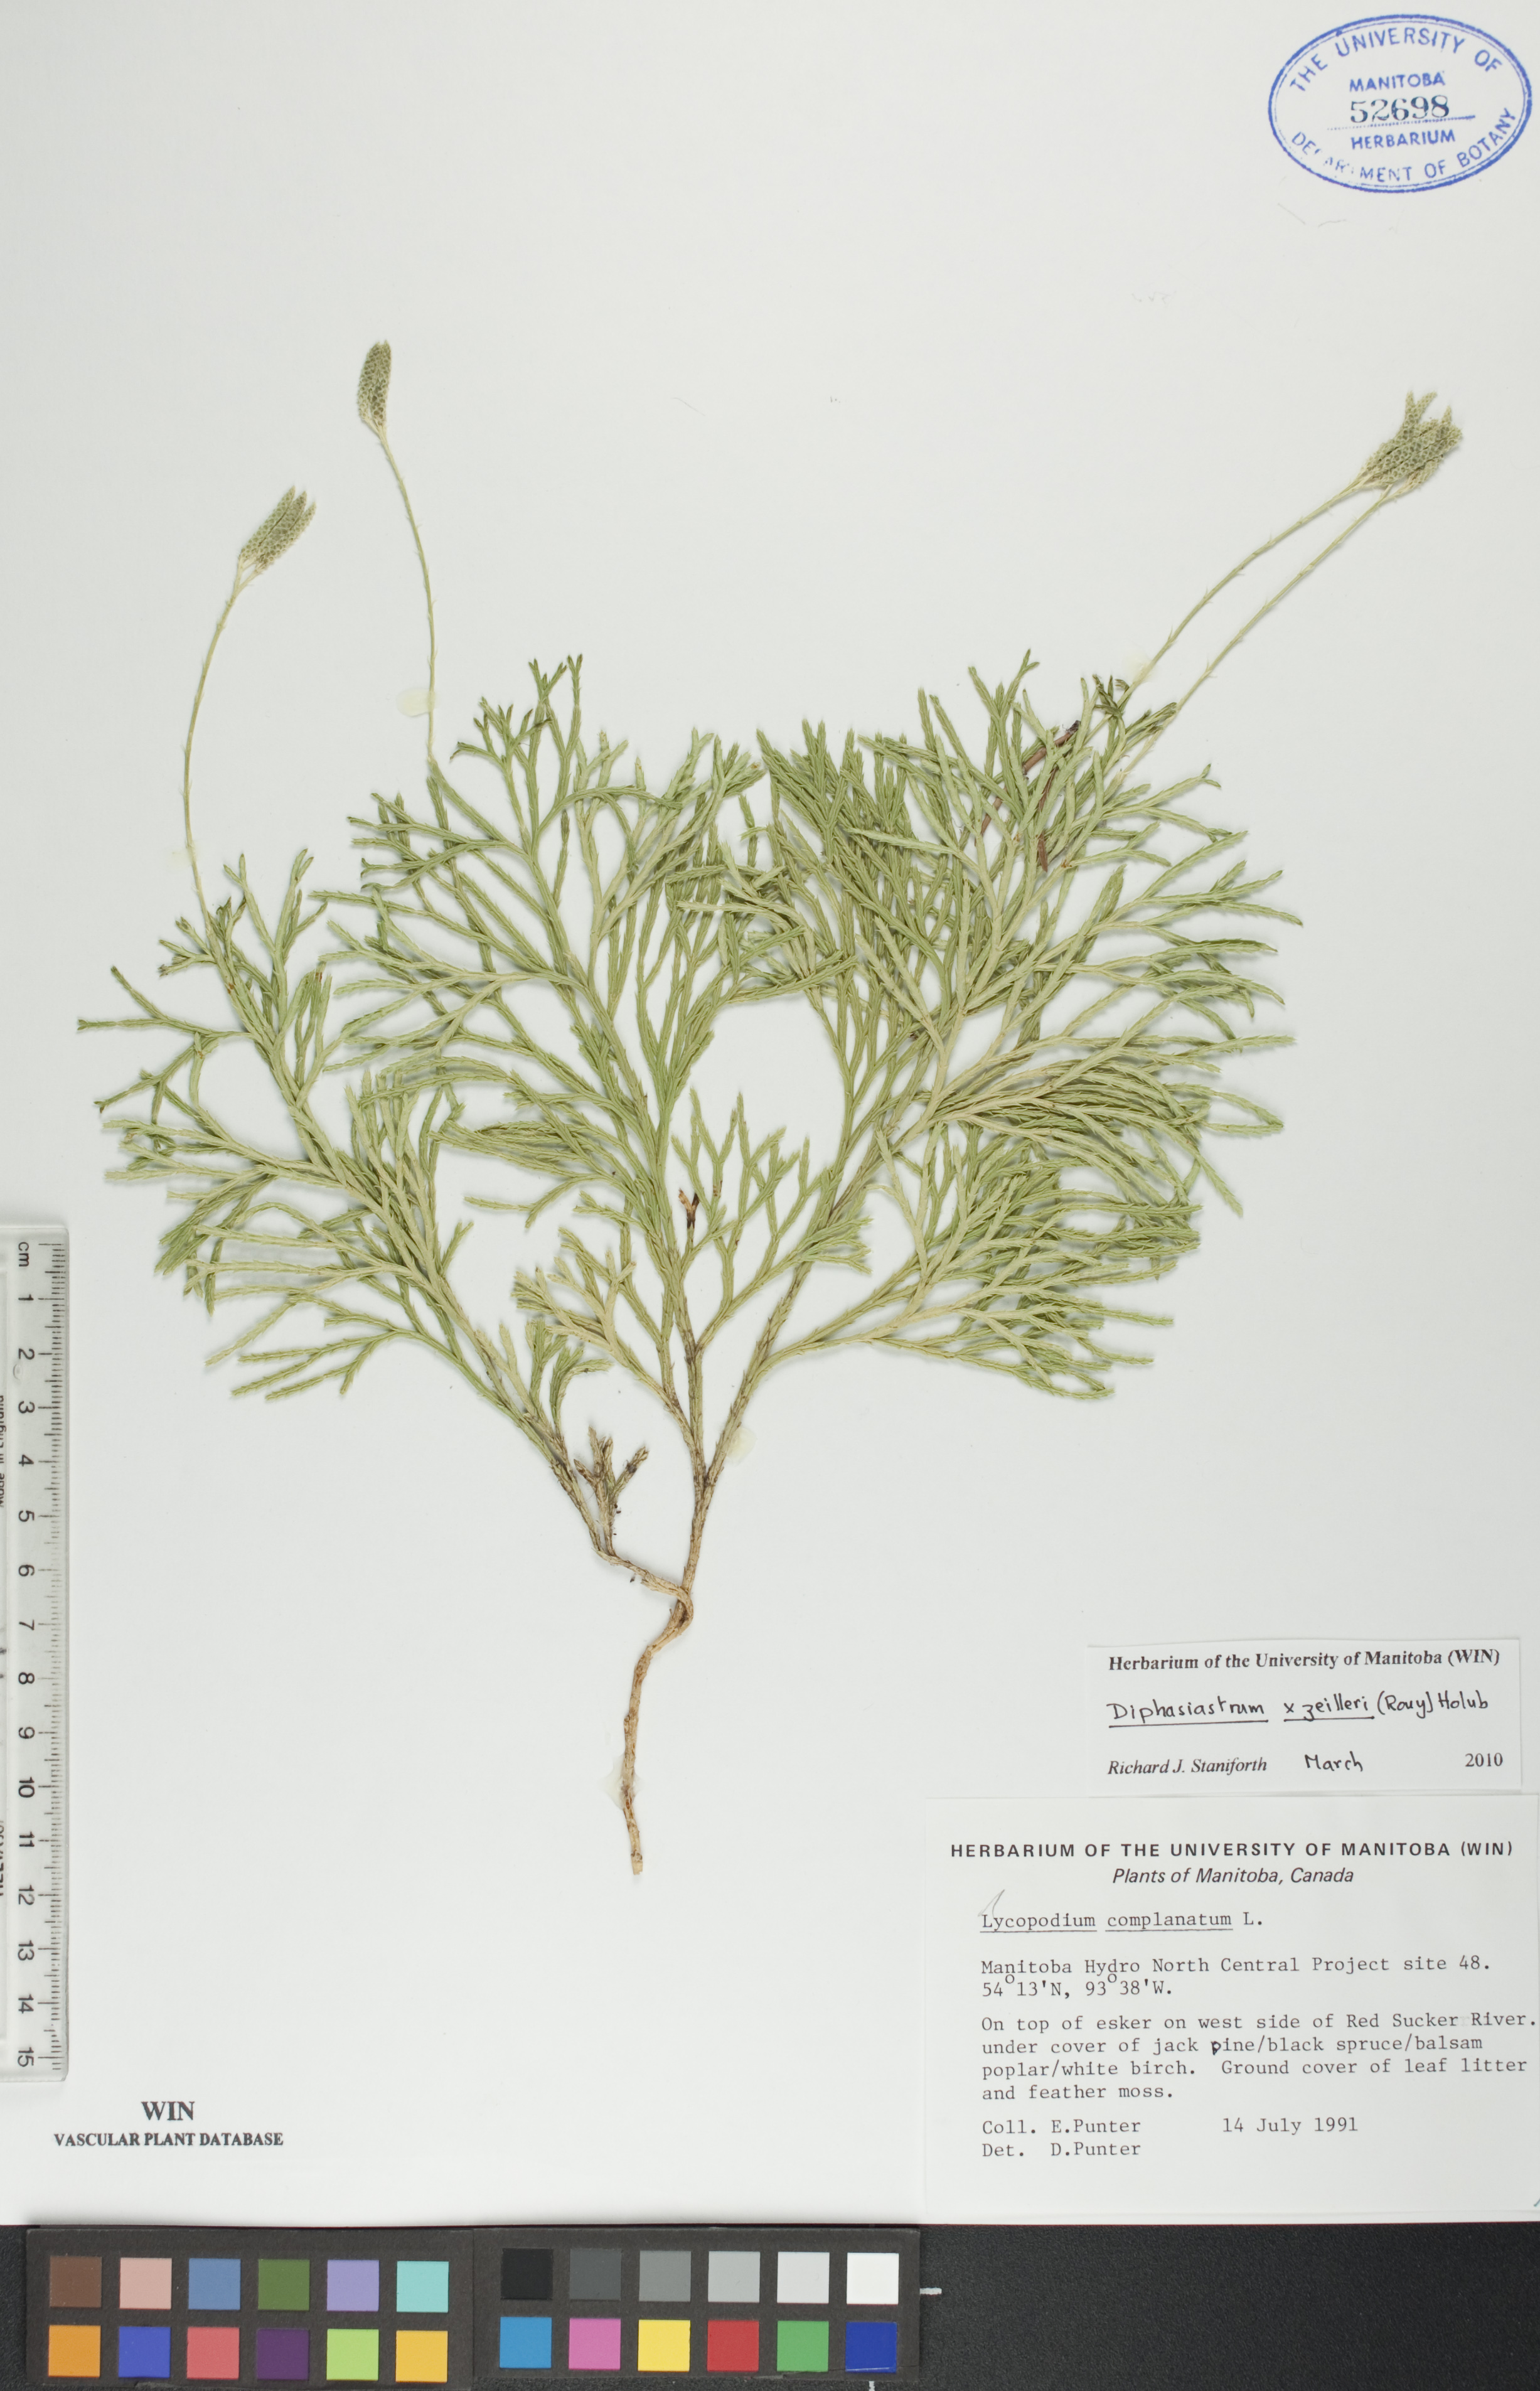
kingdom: Plantae
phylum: Tracheophyta
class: Lycopodiopsida
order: Lycopodiales
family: Lycopodiaceae
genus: Diphasiastrum
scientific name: Diphasiastrum zeilleri
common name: Zeiller's clubmoss
